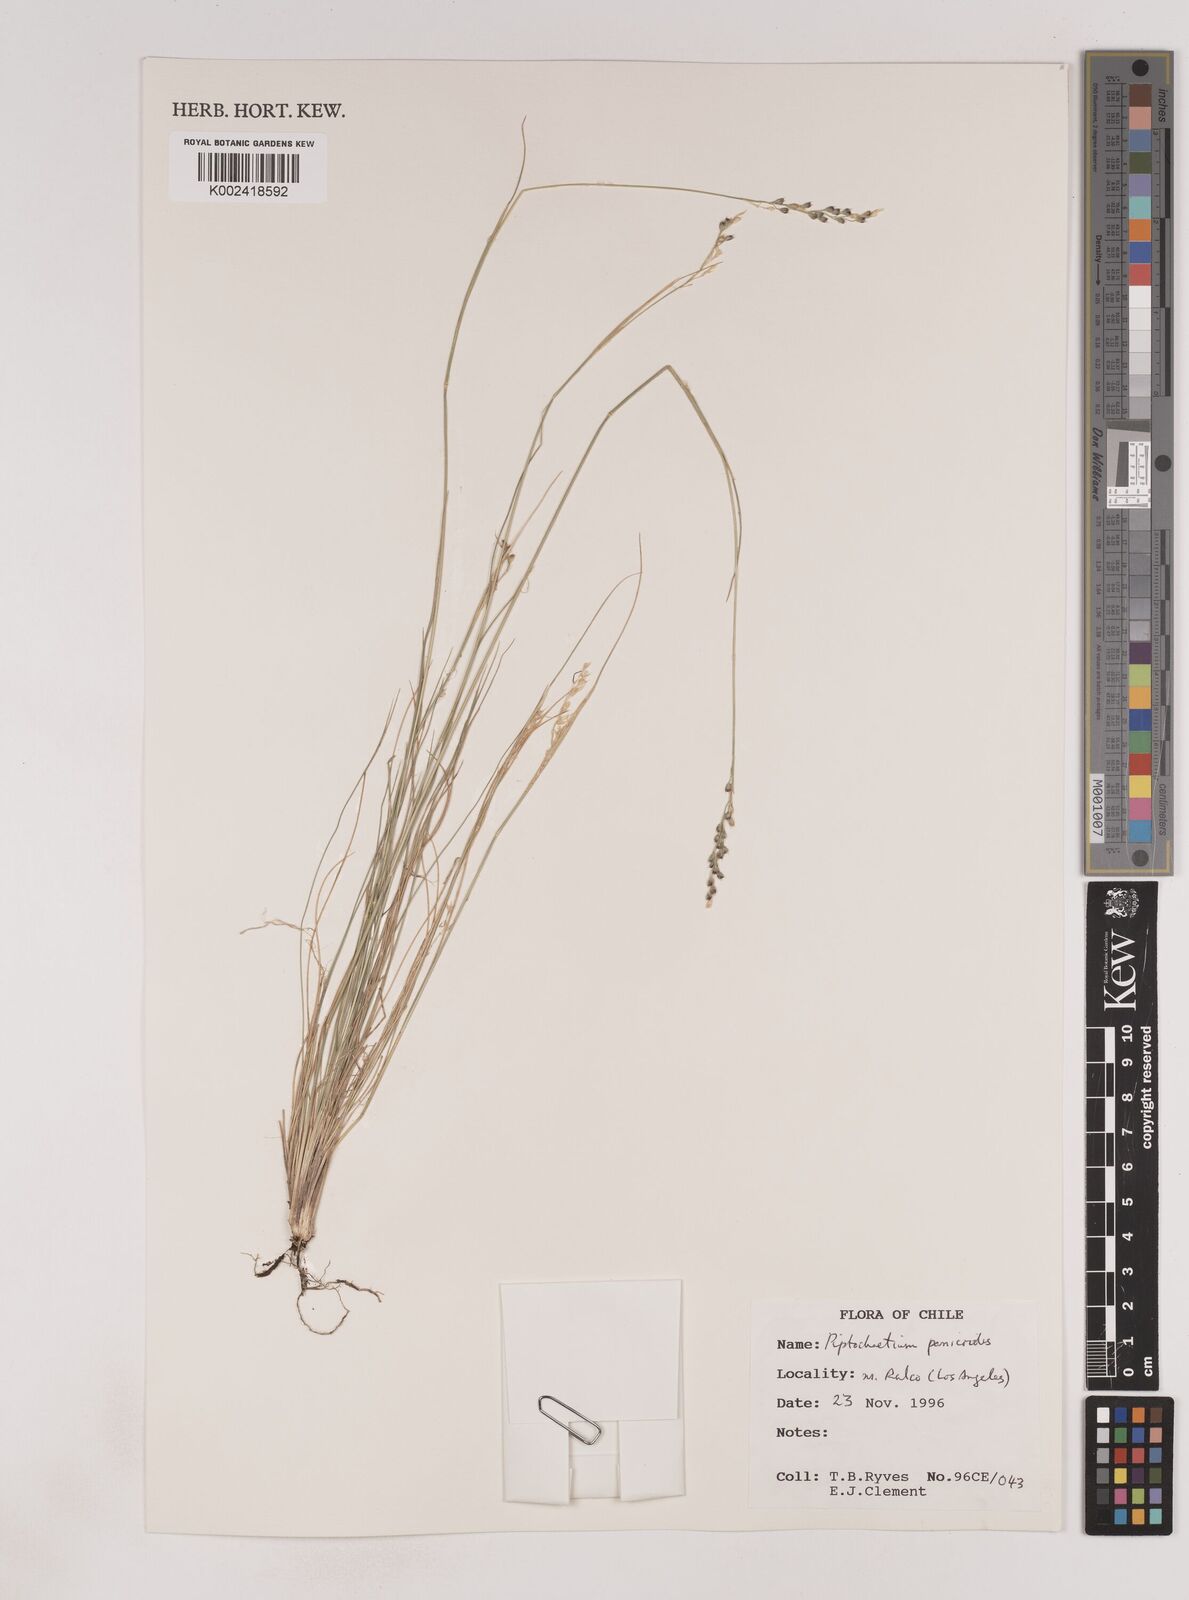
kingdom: Plantae
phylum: Tracheophyta
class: Liliopsida
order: Poales
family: Poaceae
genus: Piptochaetium
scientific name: Piptochaetium panicoides
